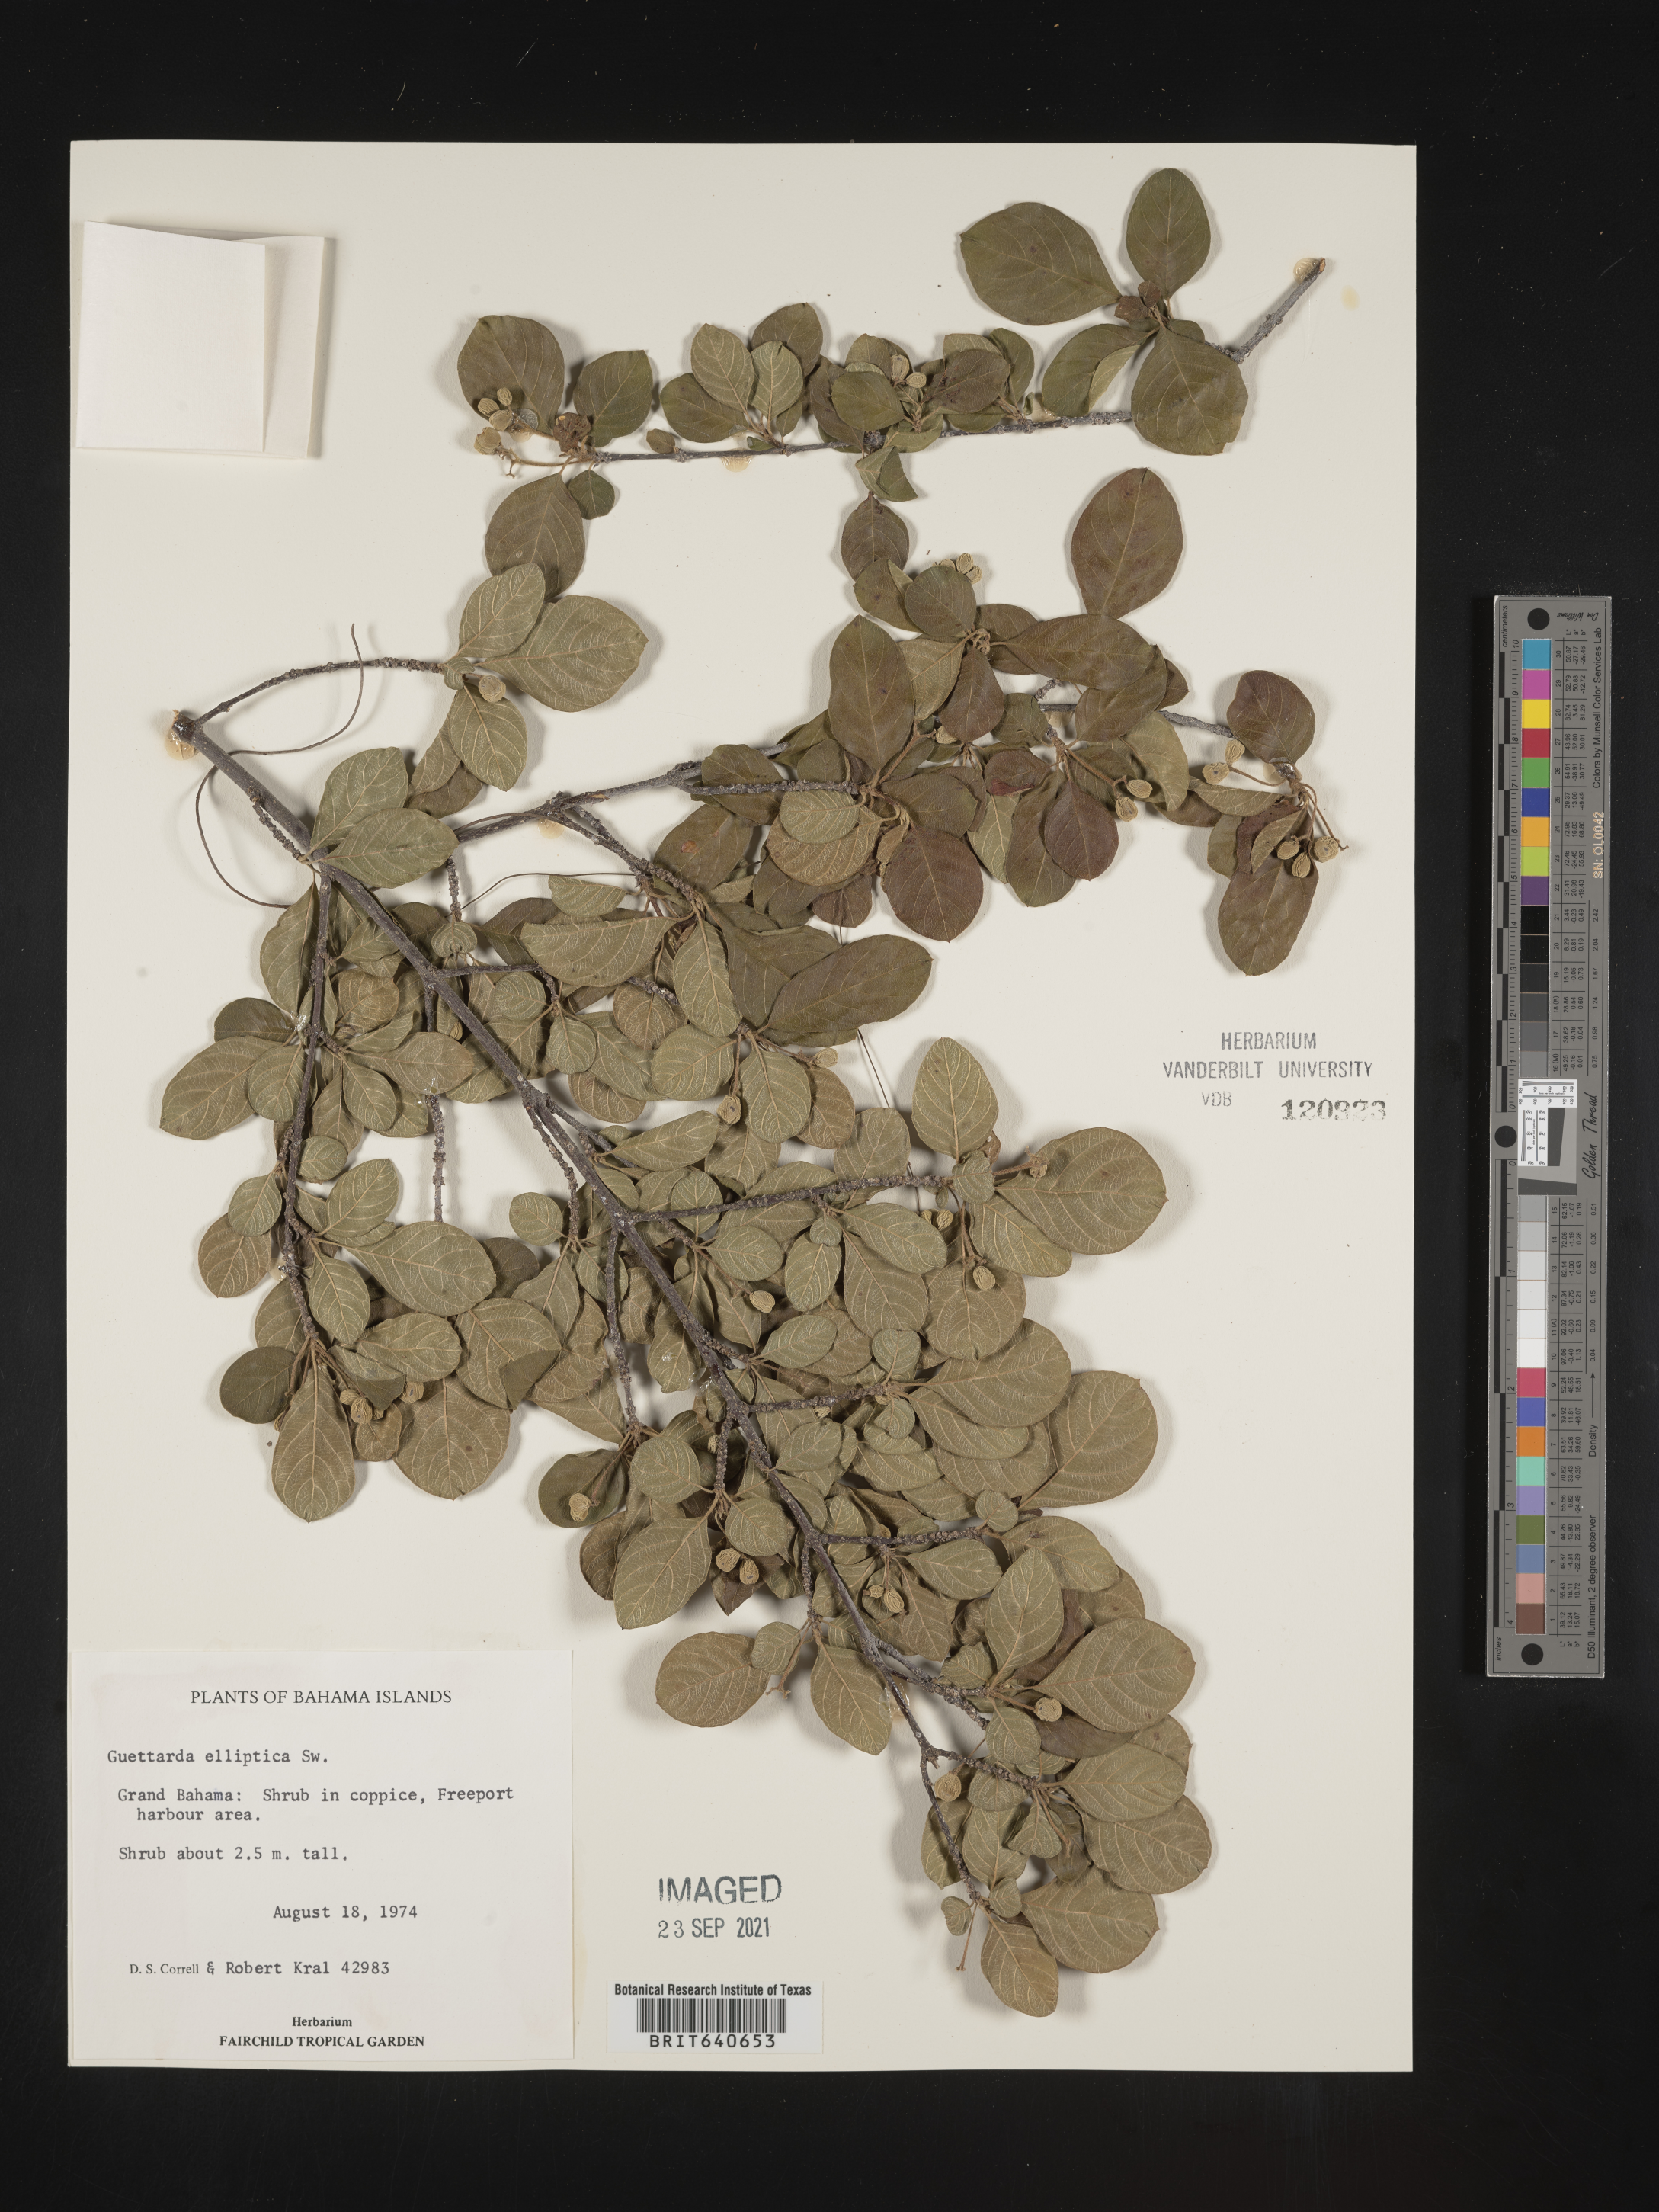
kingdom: Plantae
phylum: Tracheophyta
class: Magnoliopsida
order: Gentianales
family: Rubiaceae
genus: Guettarda
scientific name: Guettarda
